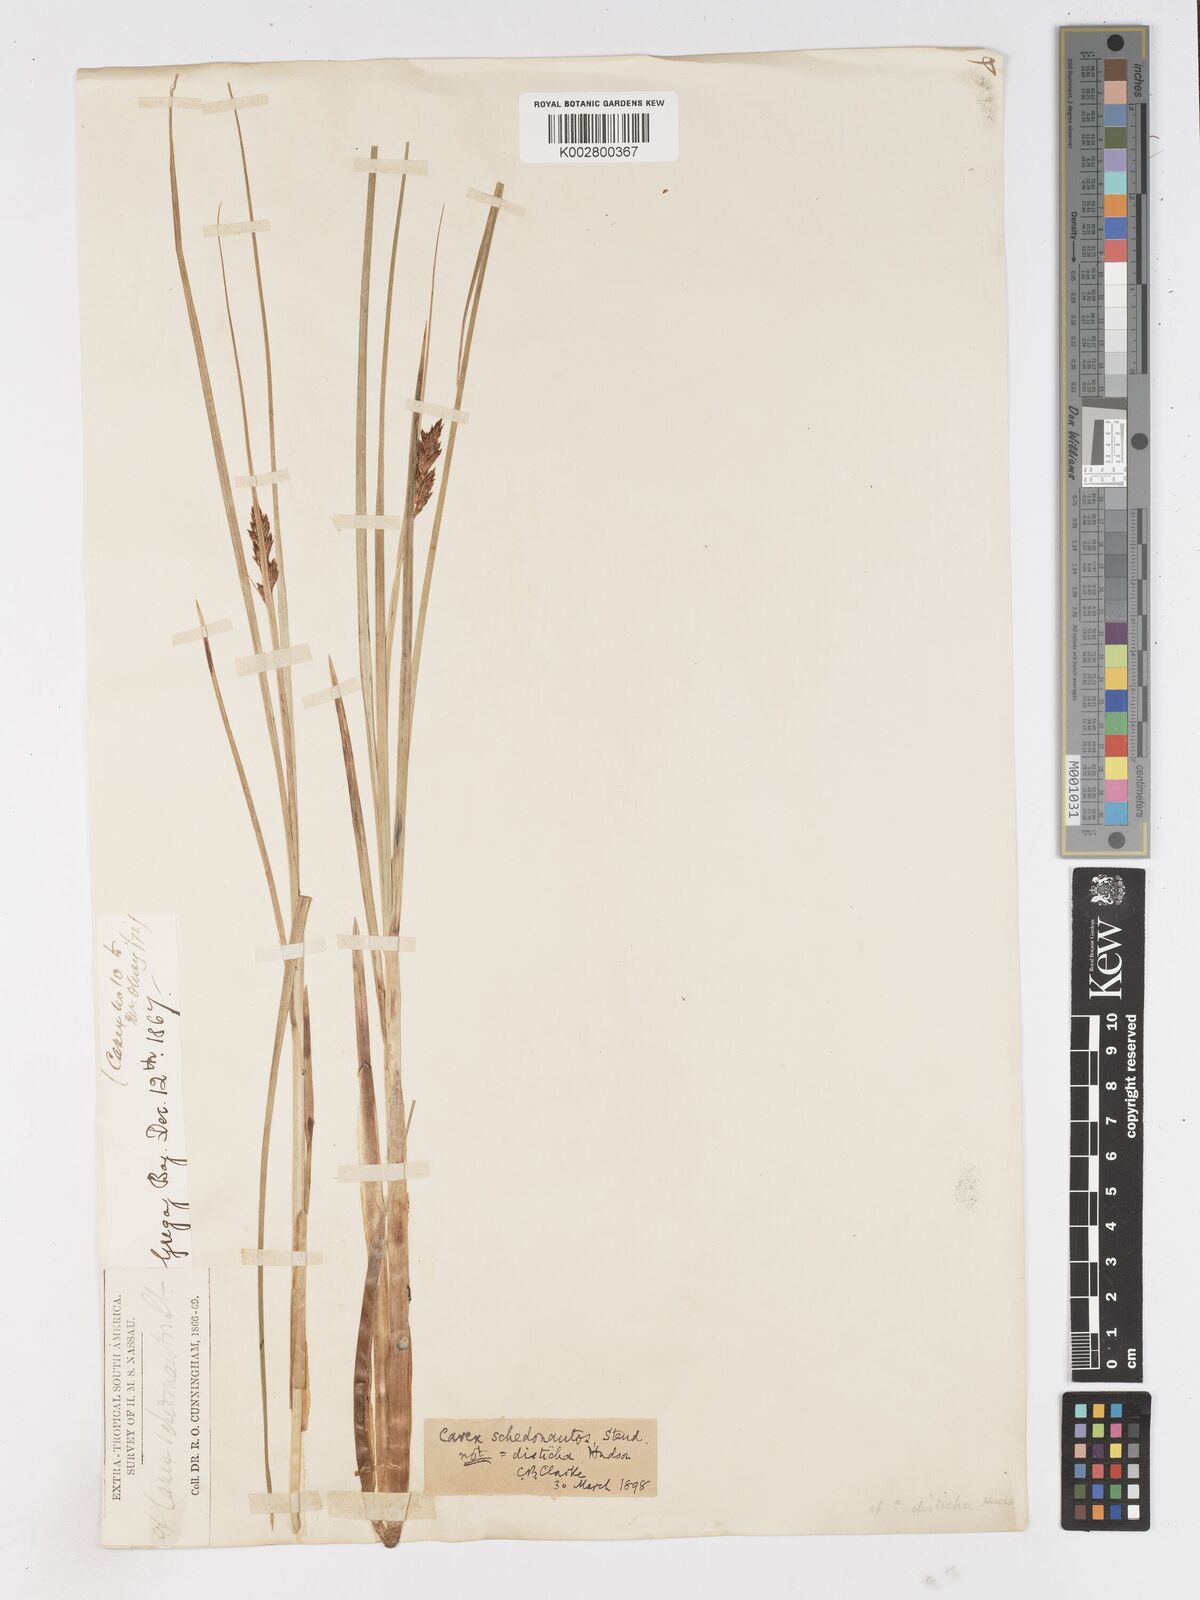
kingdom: Plantae
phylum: Tracheophyta
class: Liliopsida
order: Poales
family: Cyperaceae
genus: Carex
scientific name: Carex gayana
